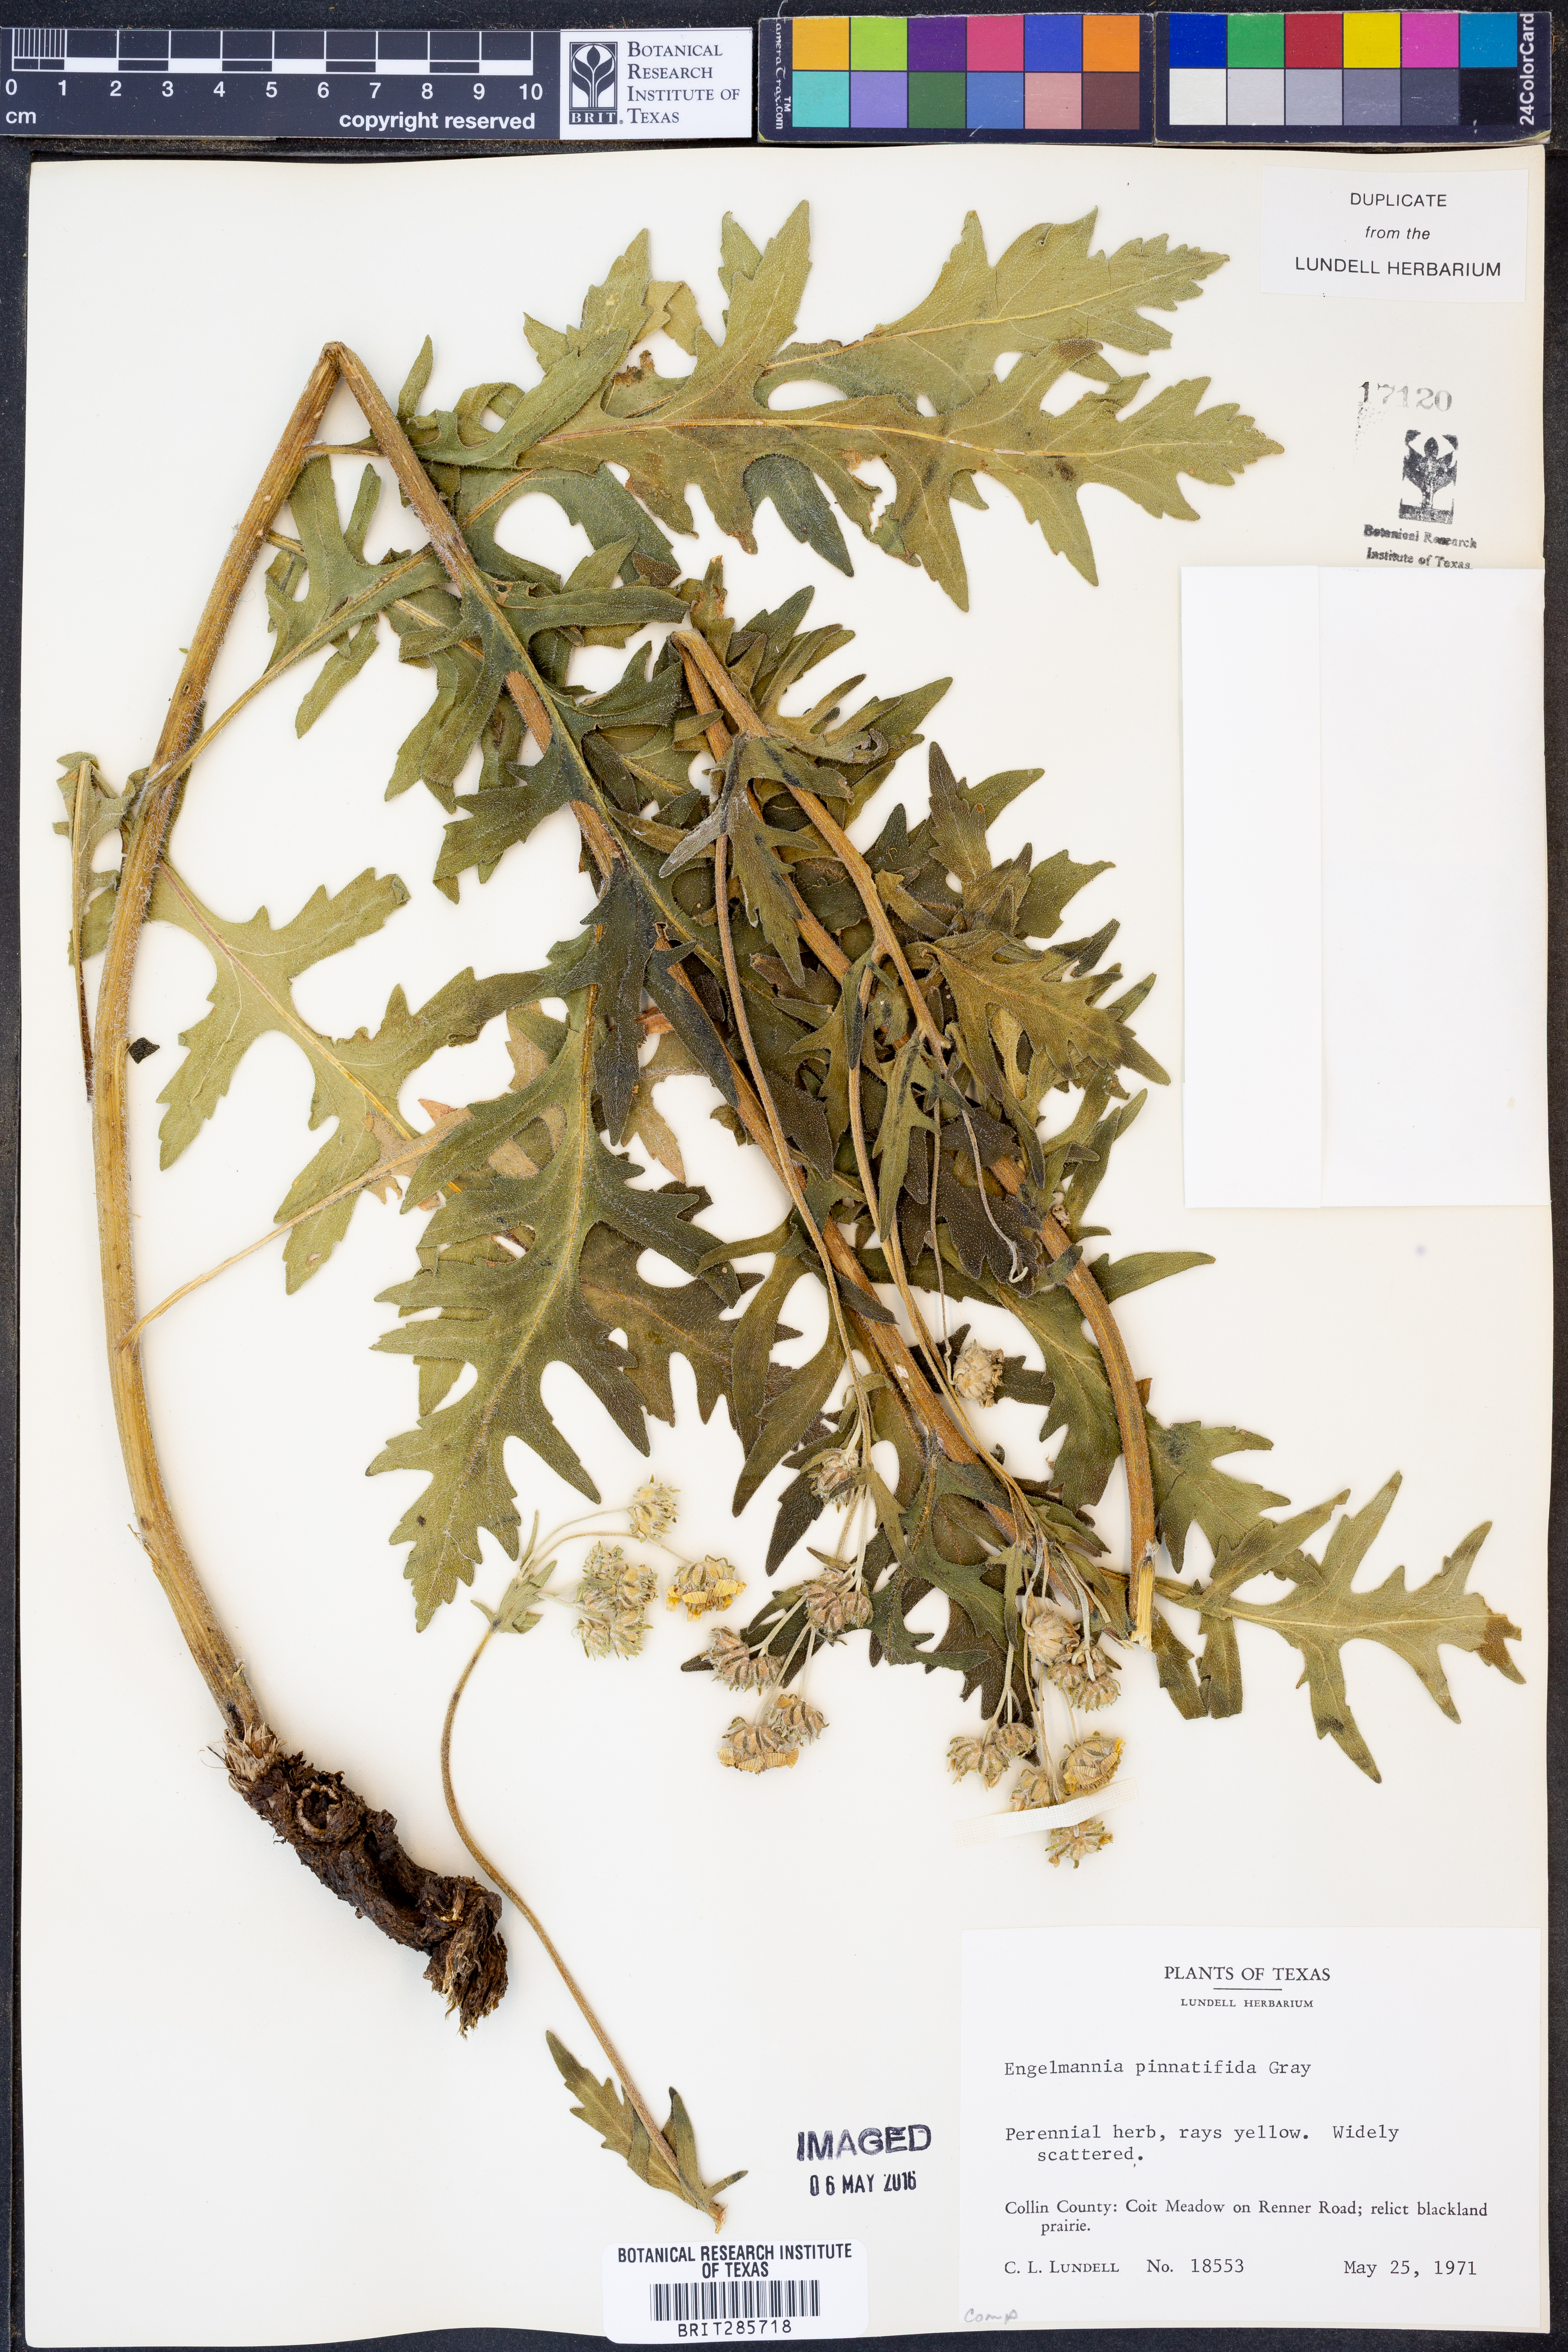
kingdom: Plantae
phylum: Tracheophyta
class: Magnoliopsida
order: Asterales
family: Asteraceae
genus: Engelmannia
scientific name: Engelmannia peristenia
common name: Engelmann's daisy
